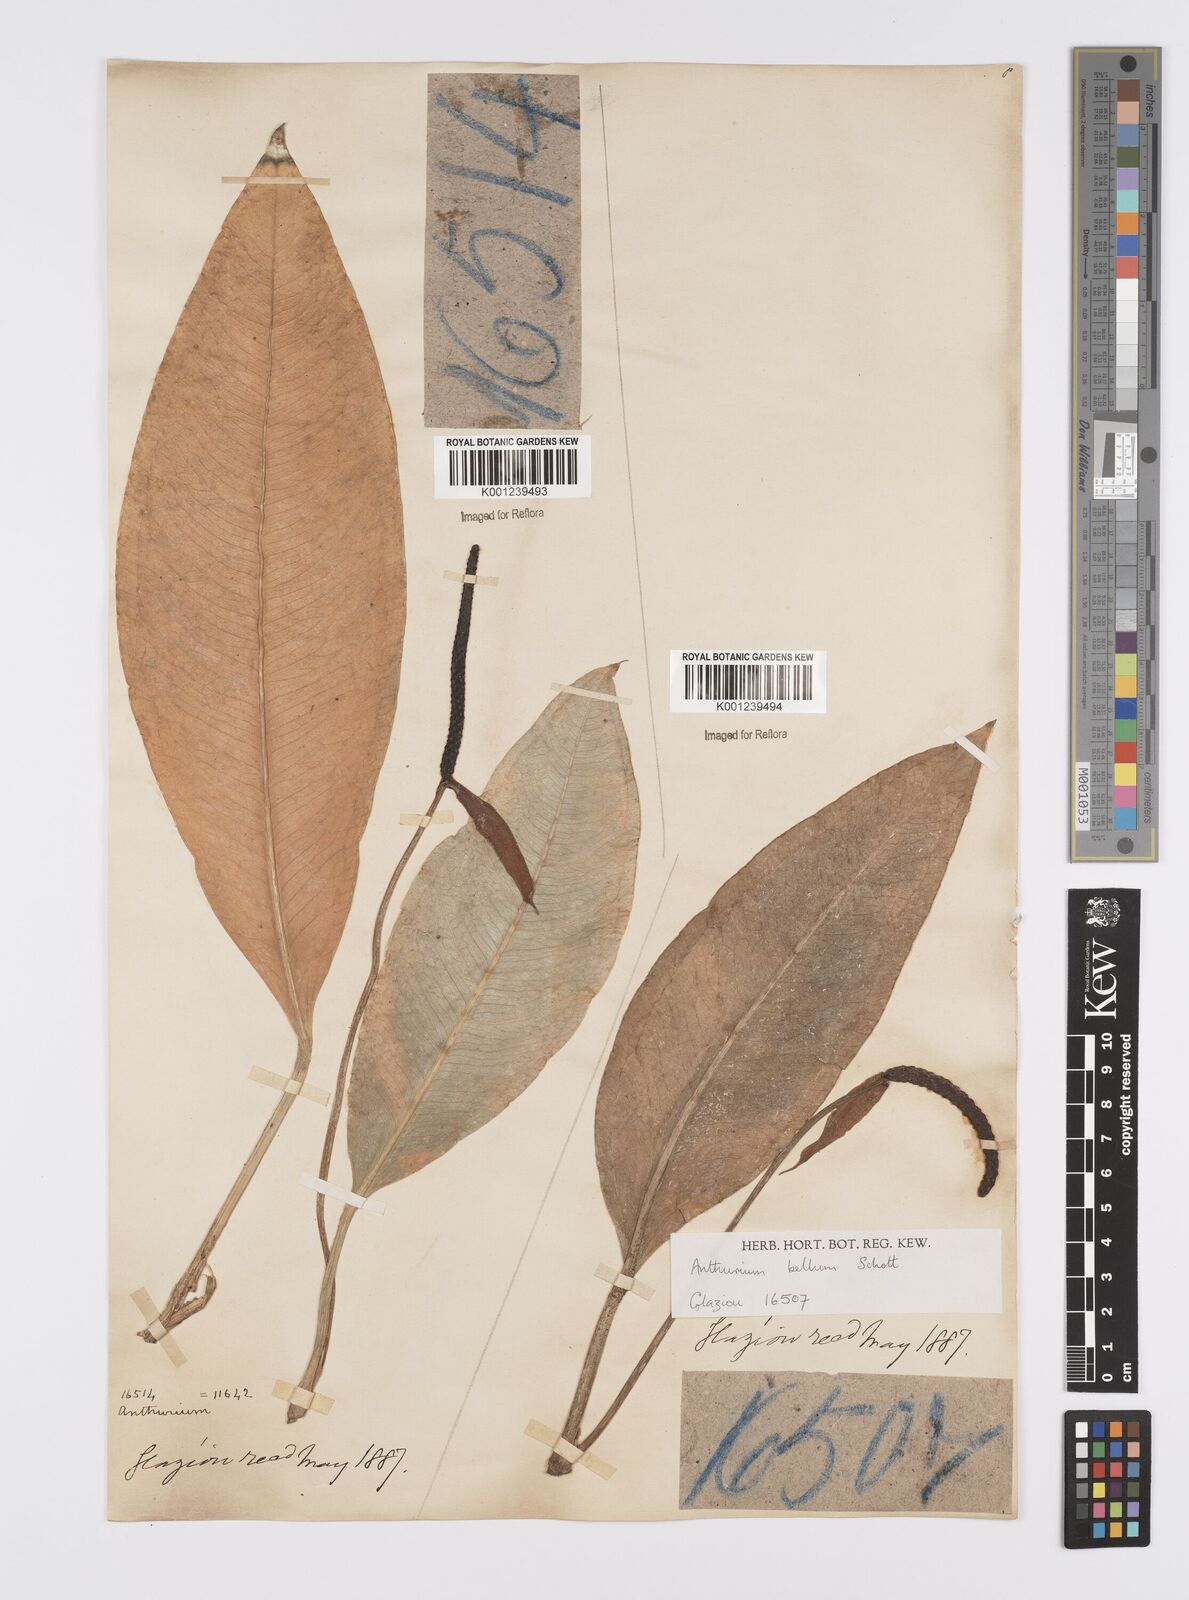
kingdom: Plantae
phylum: Tracheophyta
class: Liliopsida
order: Alismatales
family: Araceae
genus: Anthurium
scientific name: Anthurium bellum
